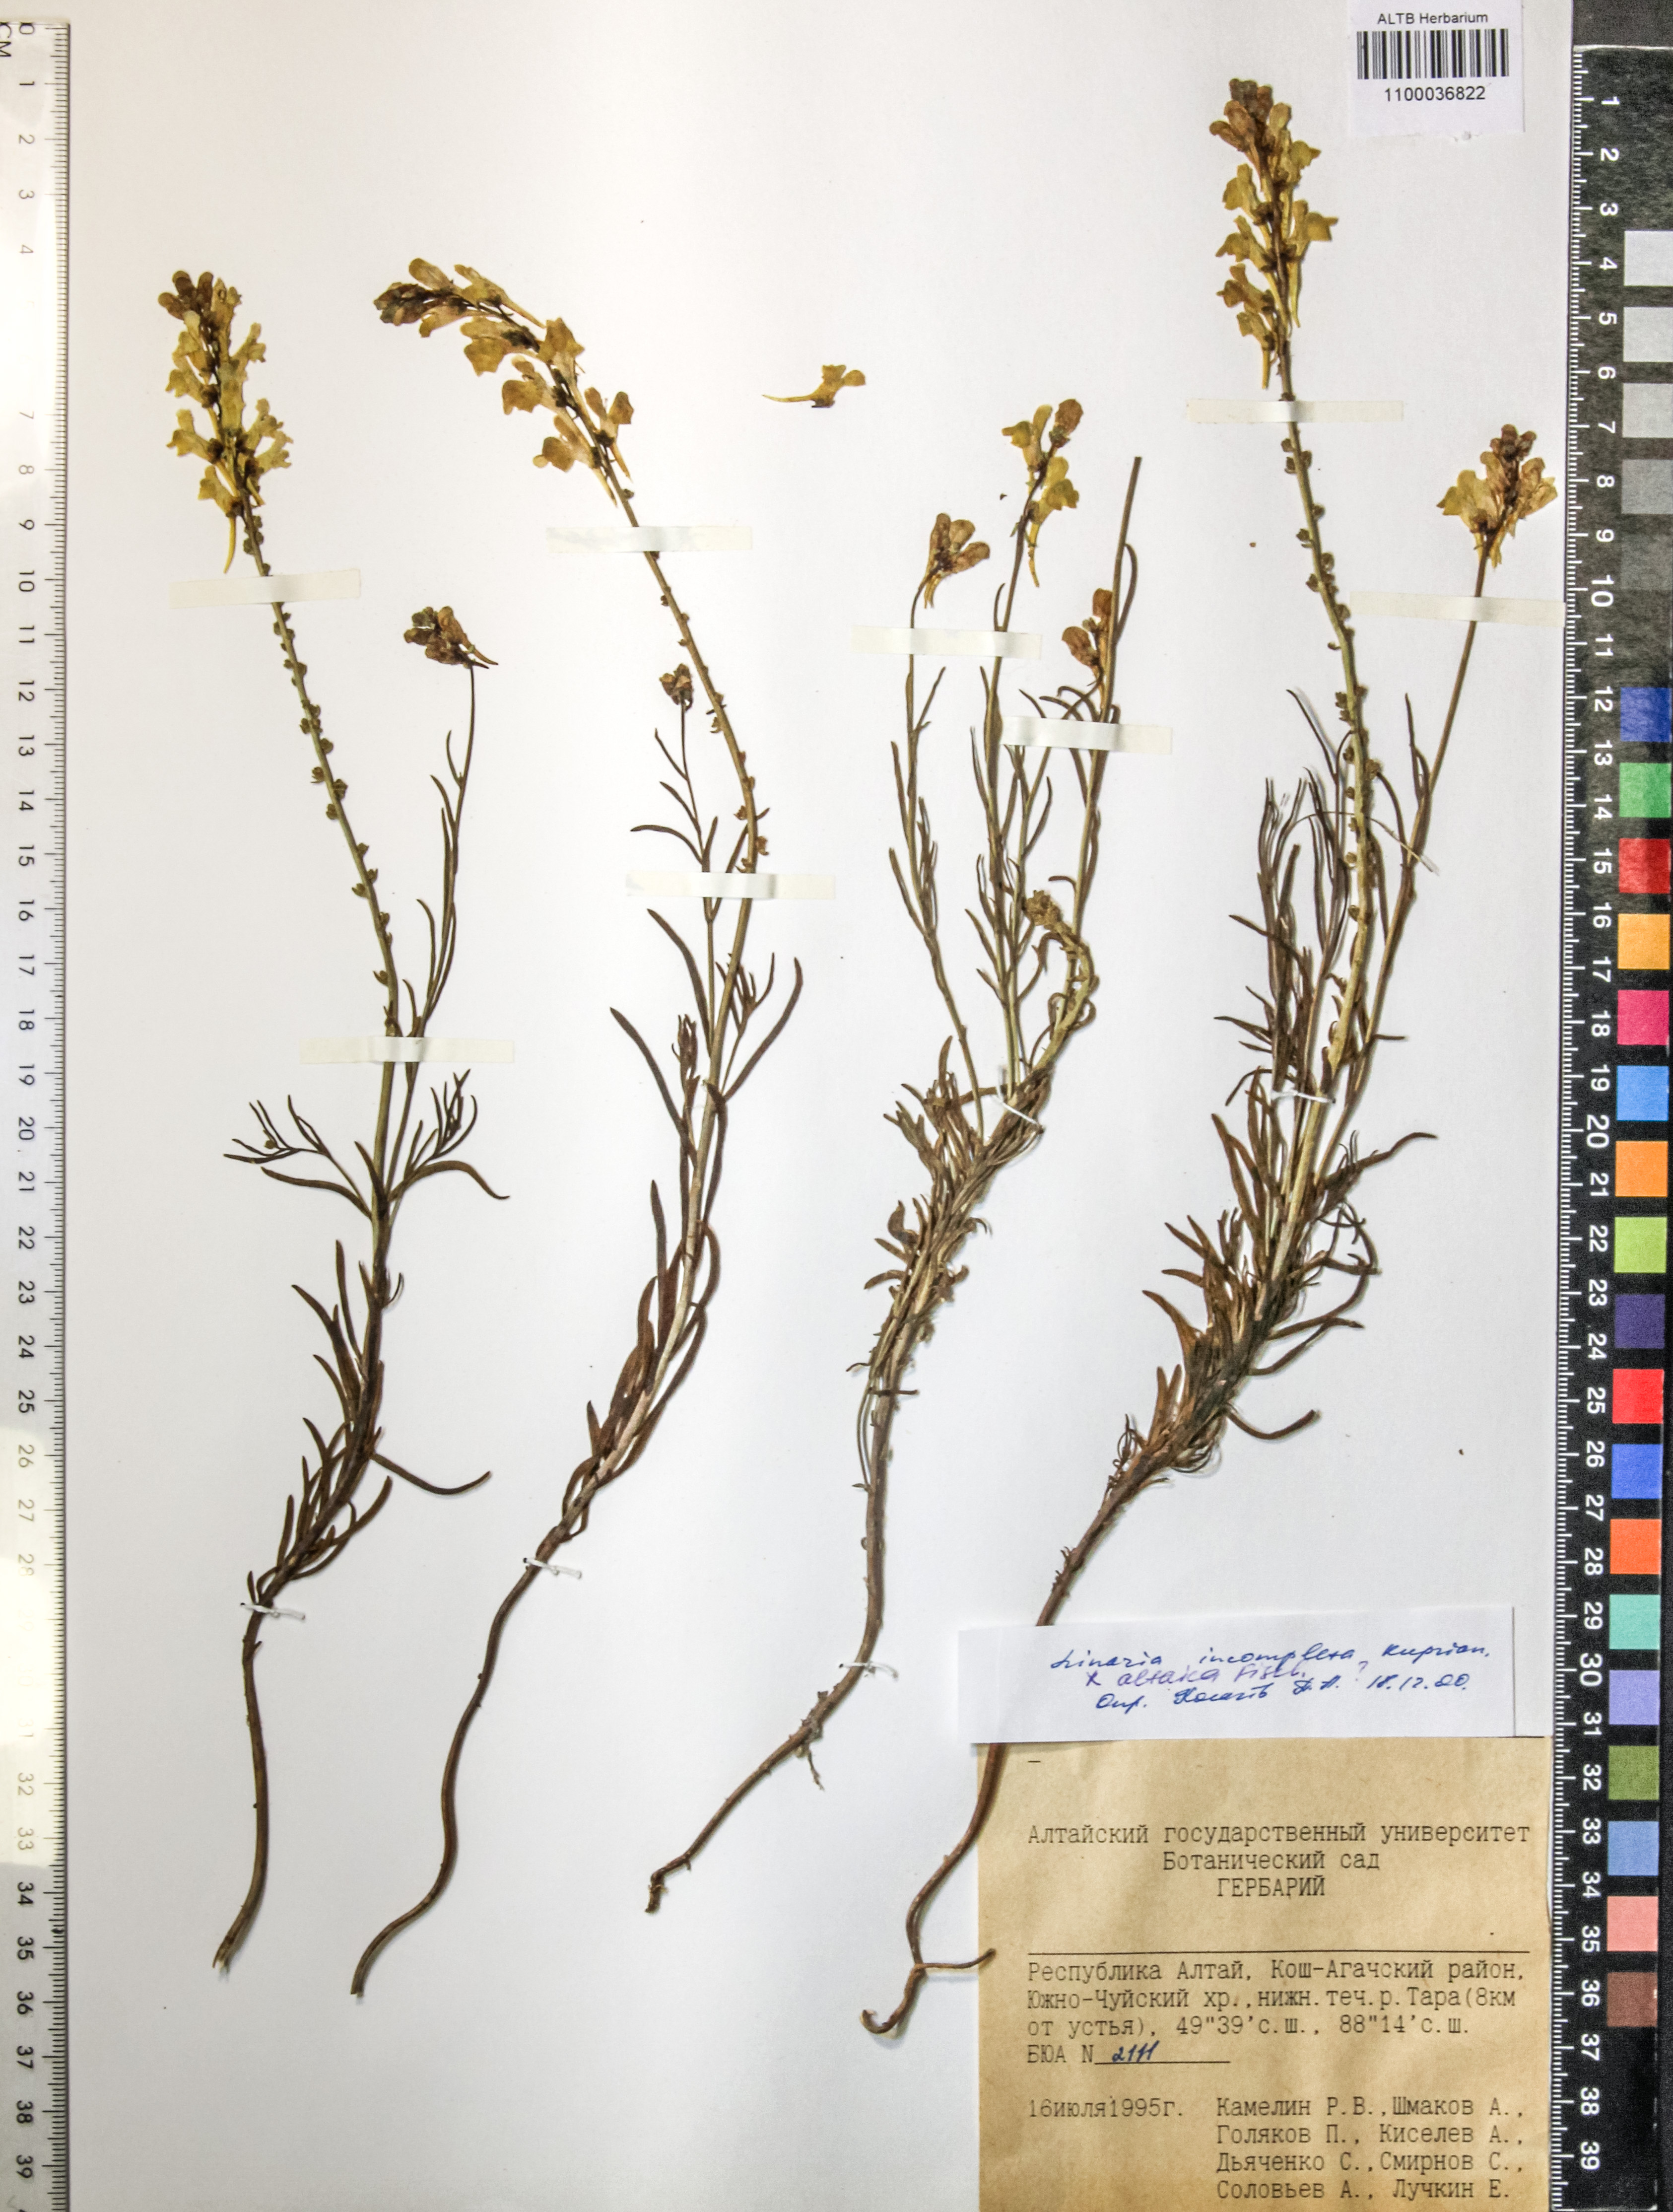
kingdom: Plantae
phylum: Tracheophyta
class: Magnoliopsida
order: Lamiales
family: Plantaginaceae
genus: Linaria
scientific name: Linaria incompleta
